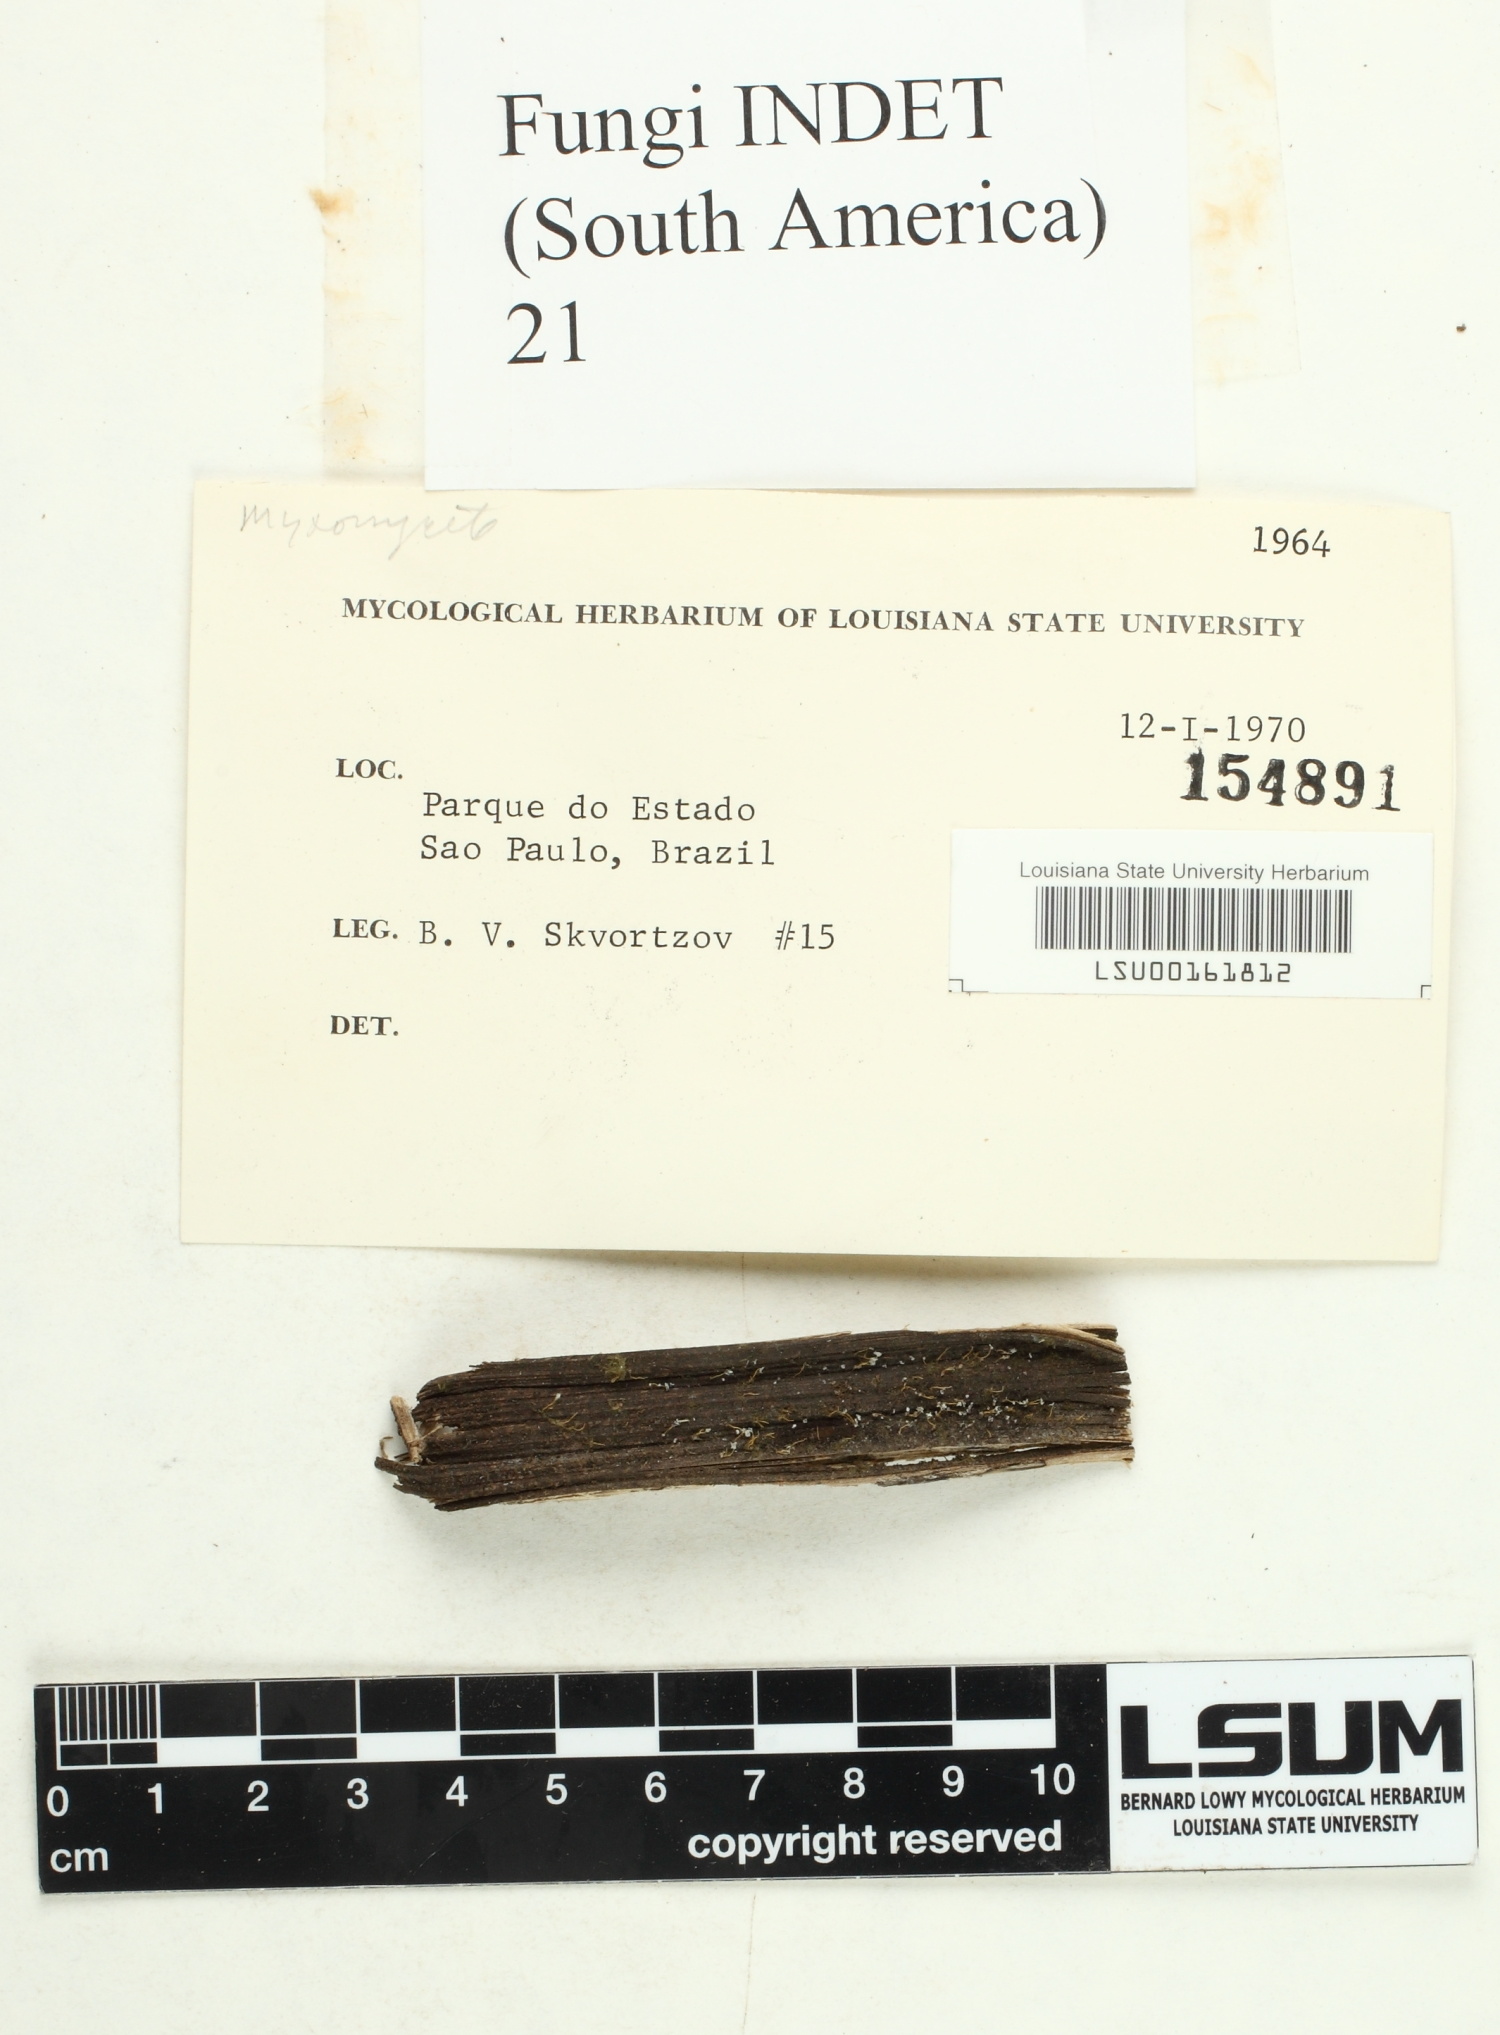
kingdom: Fungi
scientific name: Fungi
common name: Fungi
